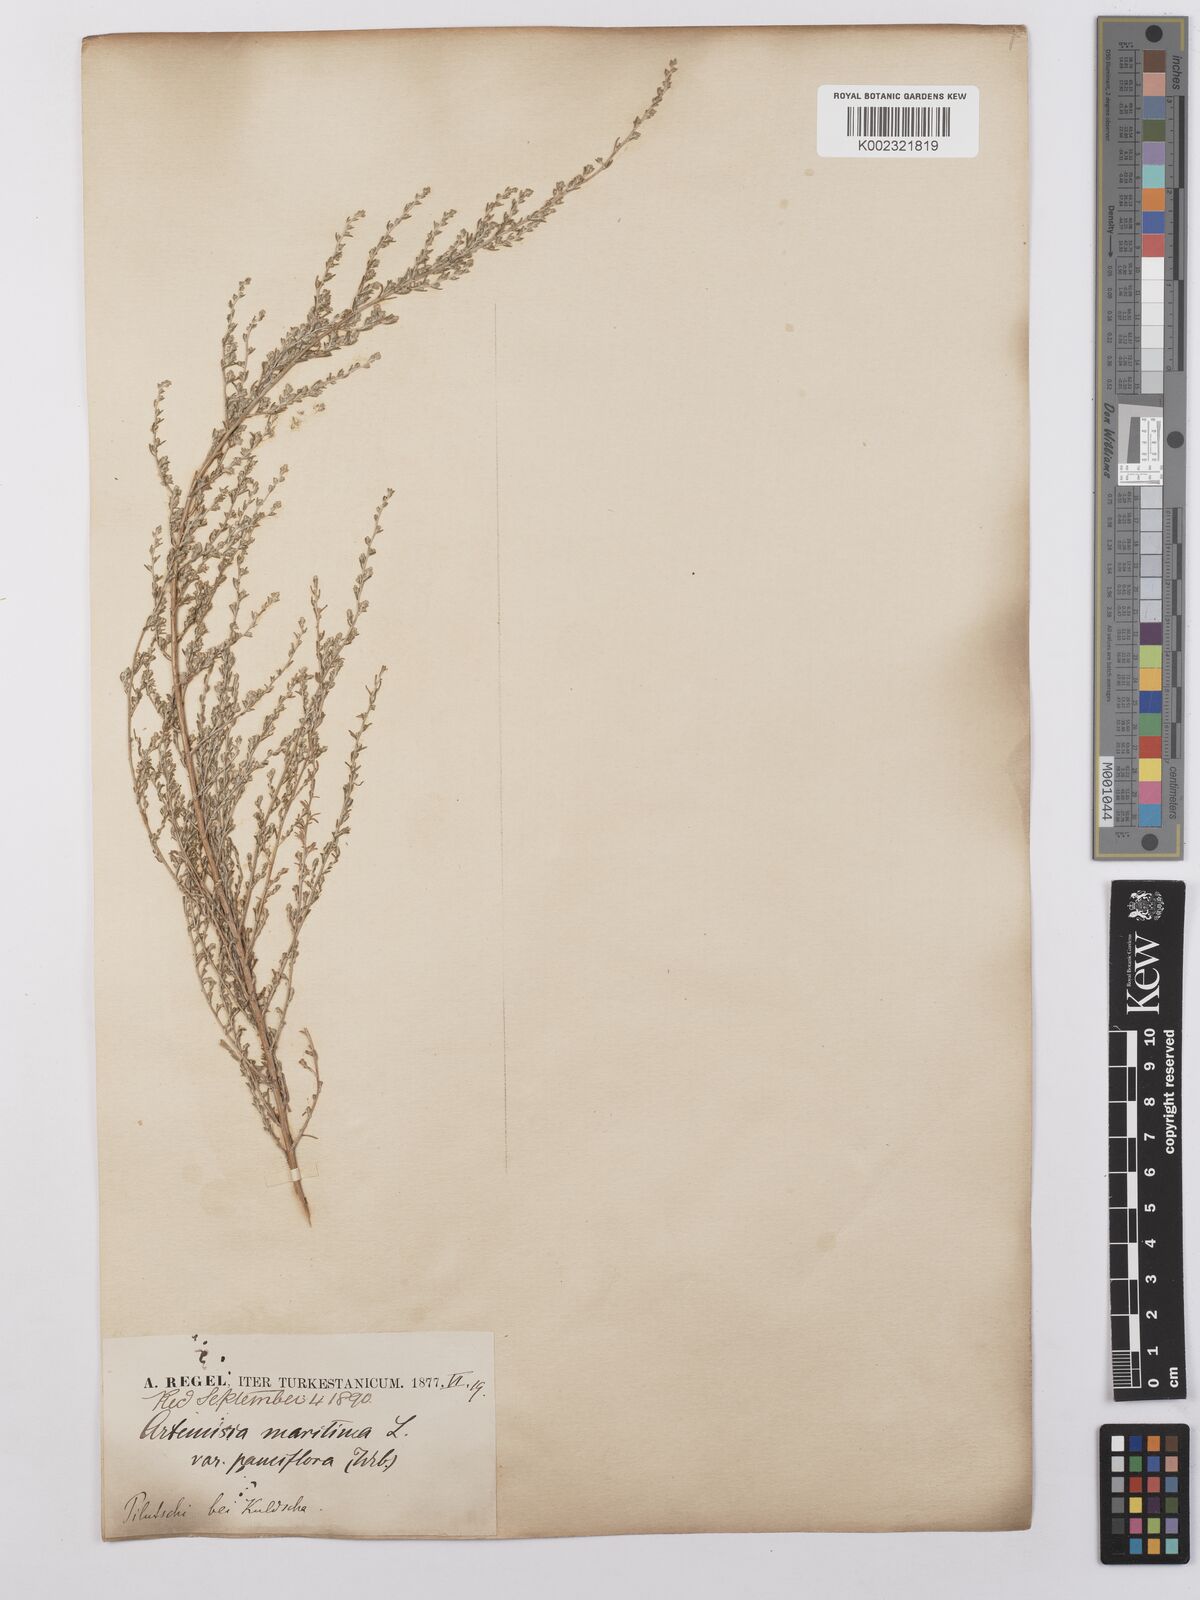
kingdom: Plantae
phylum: Tracheophyta
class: Magnoliopsida
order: Asterales
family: Asteraceae
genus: Artemisia
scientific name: Artemisia cina
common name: Levant wormseed
